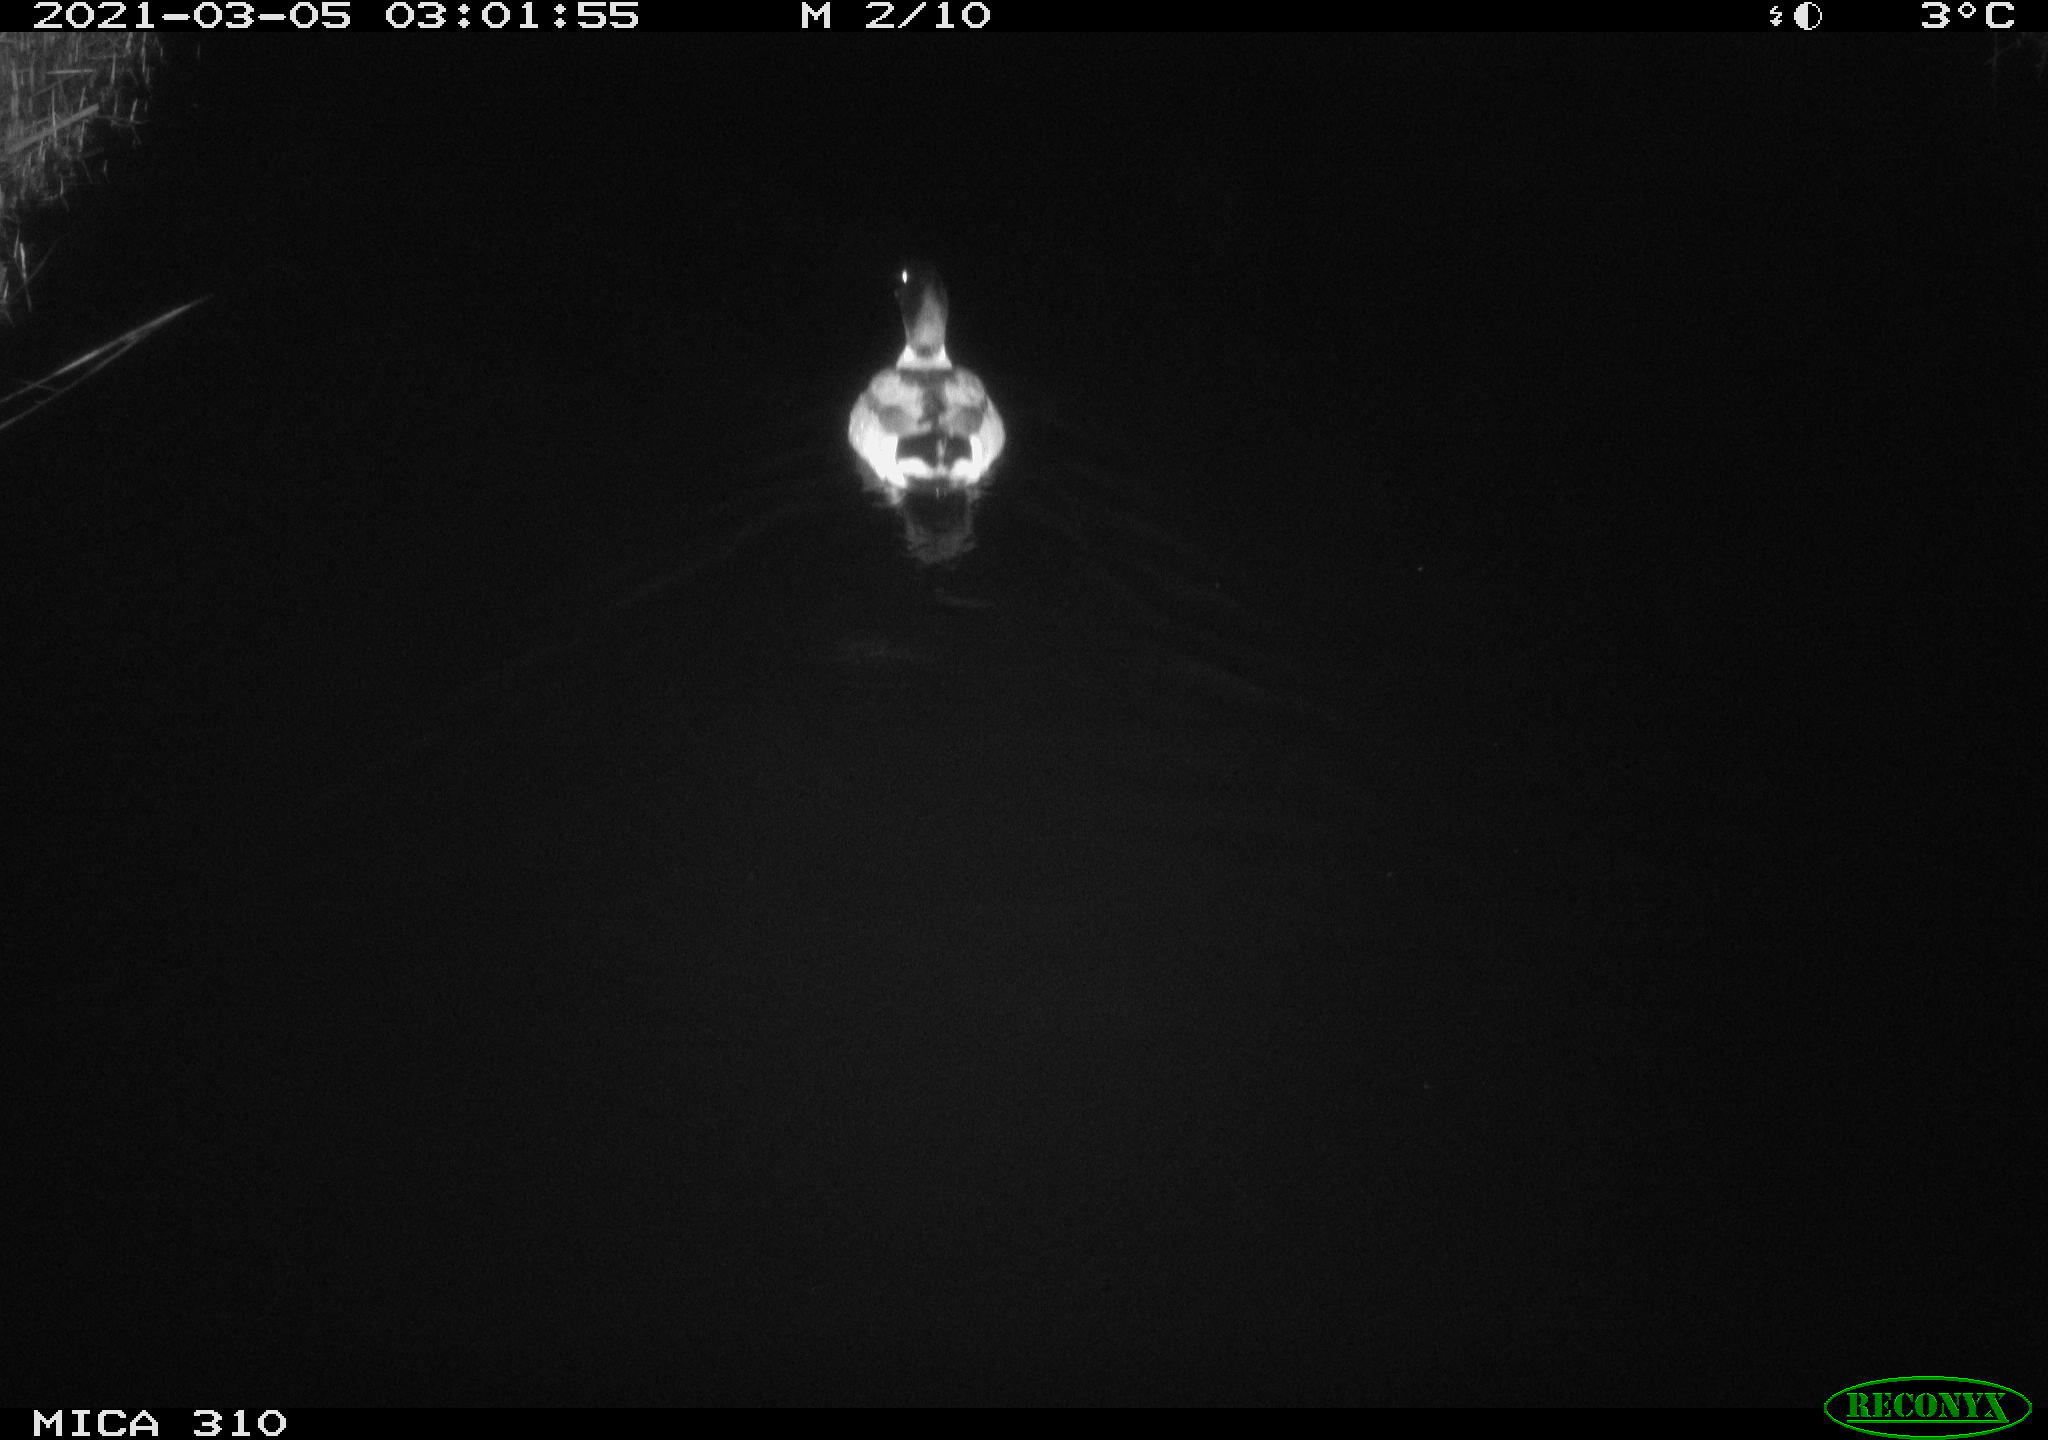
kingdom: Animalia
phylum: Chordata
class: Aves
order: Anseriformes
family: Anatidae
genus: Anas
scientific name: Anas platyrhynchos
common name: Mallard
